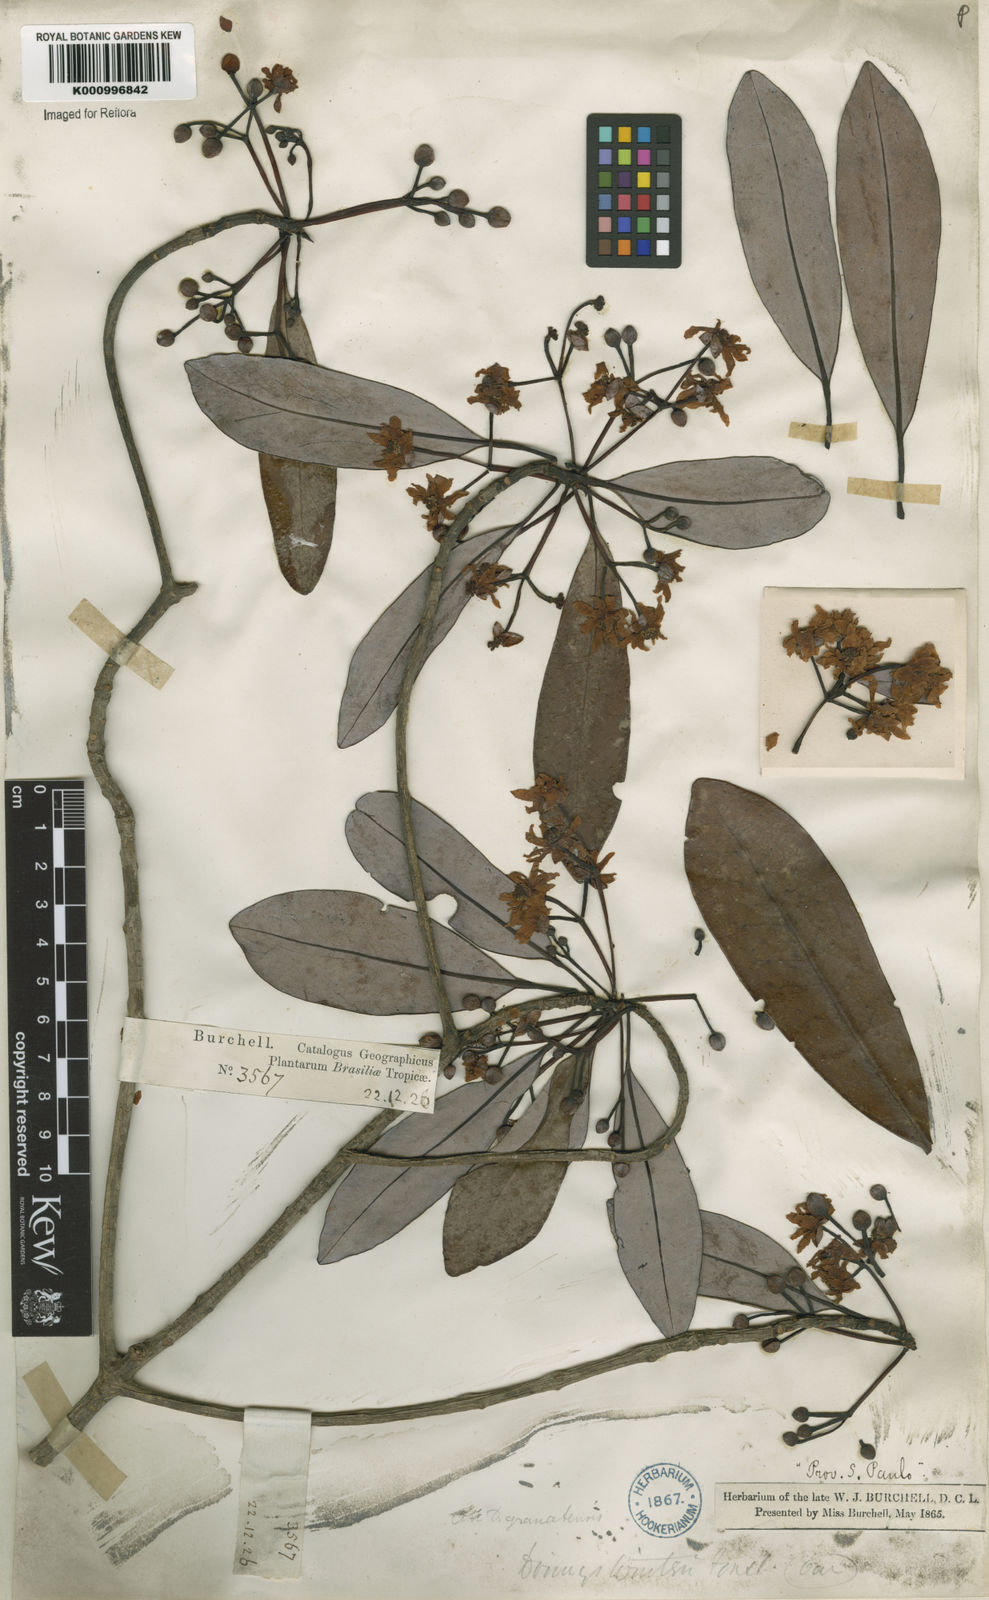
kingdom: Plantae
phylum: Tracheophyta
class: Magnoliopsida
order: Canellales
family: Winteraceae
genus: Drimys
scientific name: Drimys brasiliensis
